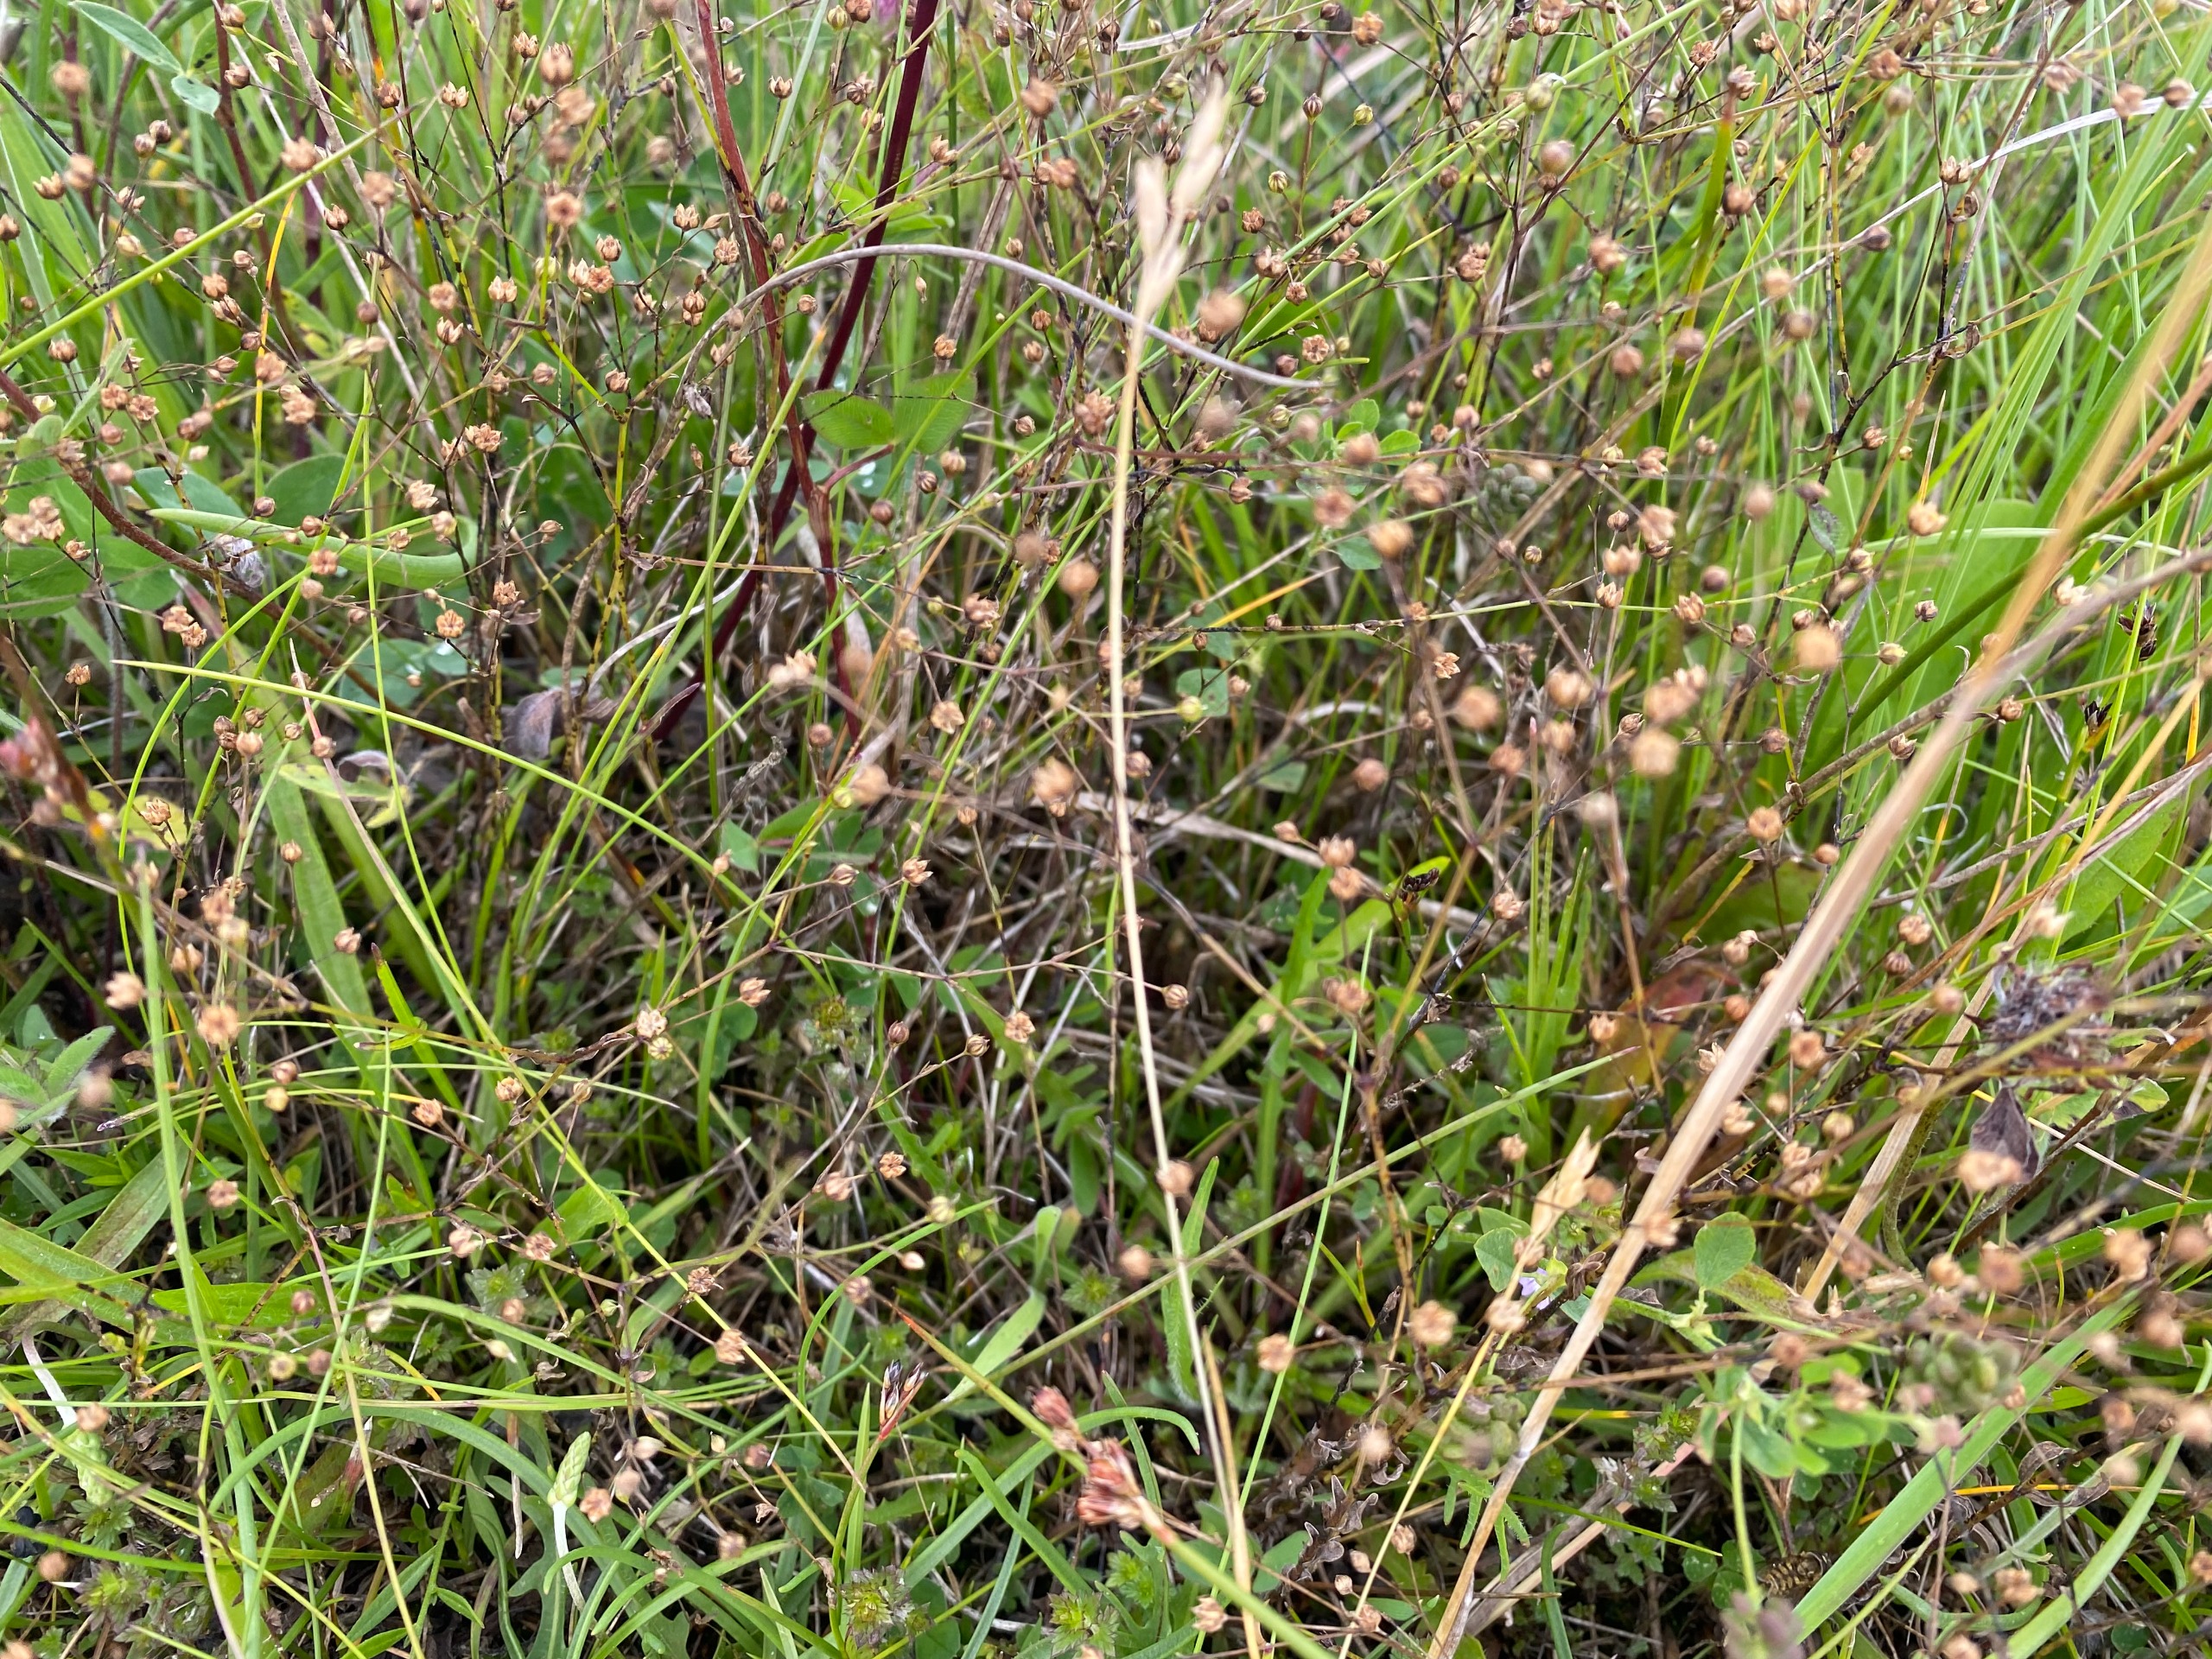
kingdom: Plantae
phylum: Tracheophyta
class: Magnoliopsida
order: Malpighiales
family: Linaceae
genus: Linum
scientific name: Linum catharticum
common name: Vild hør
